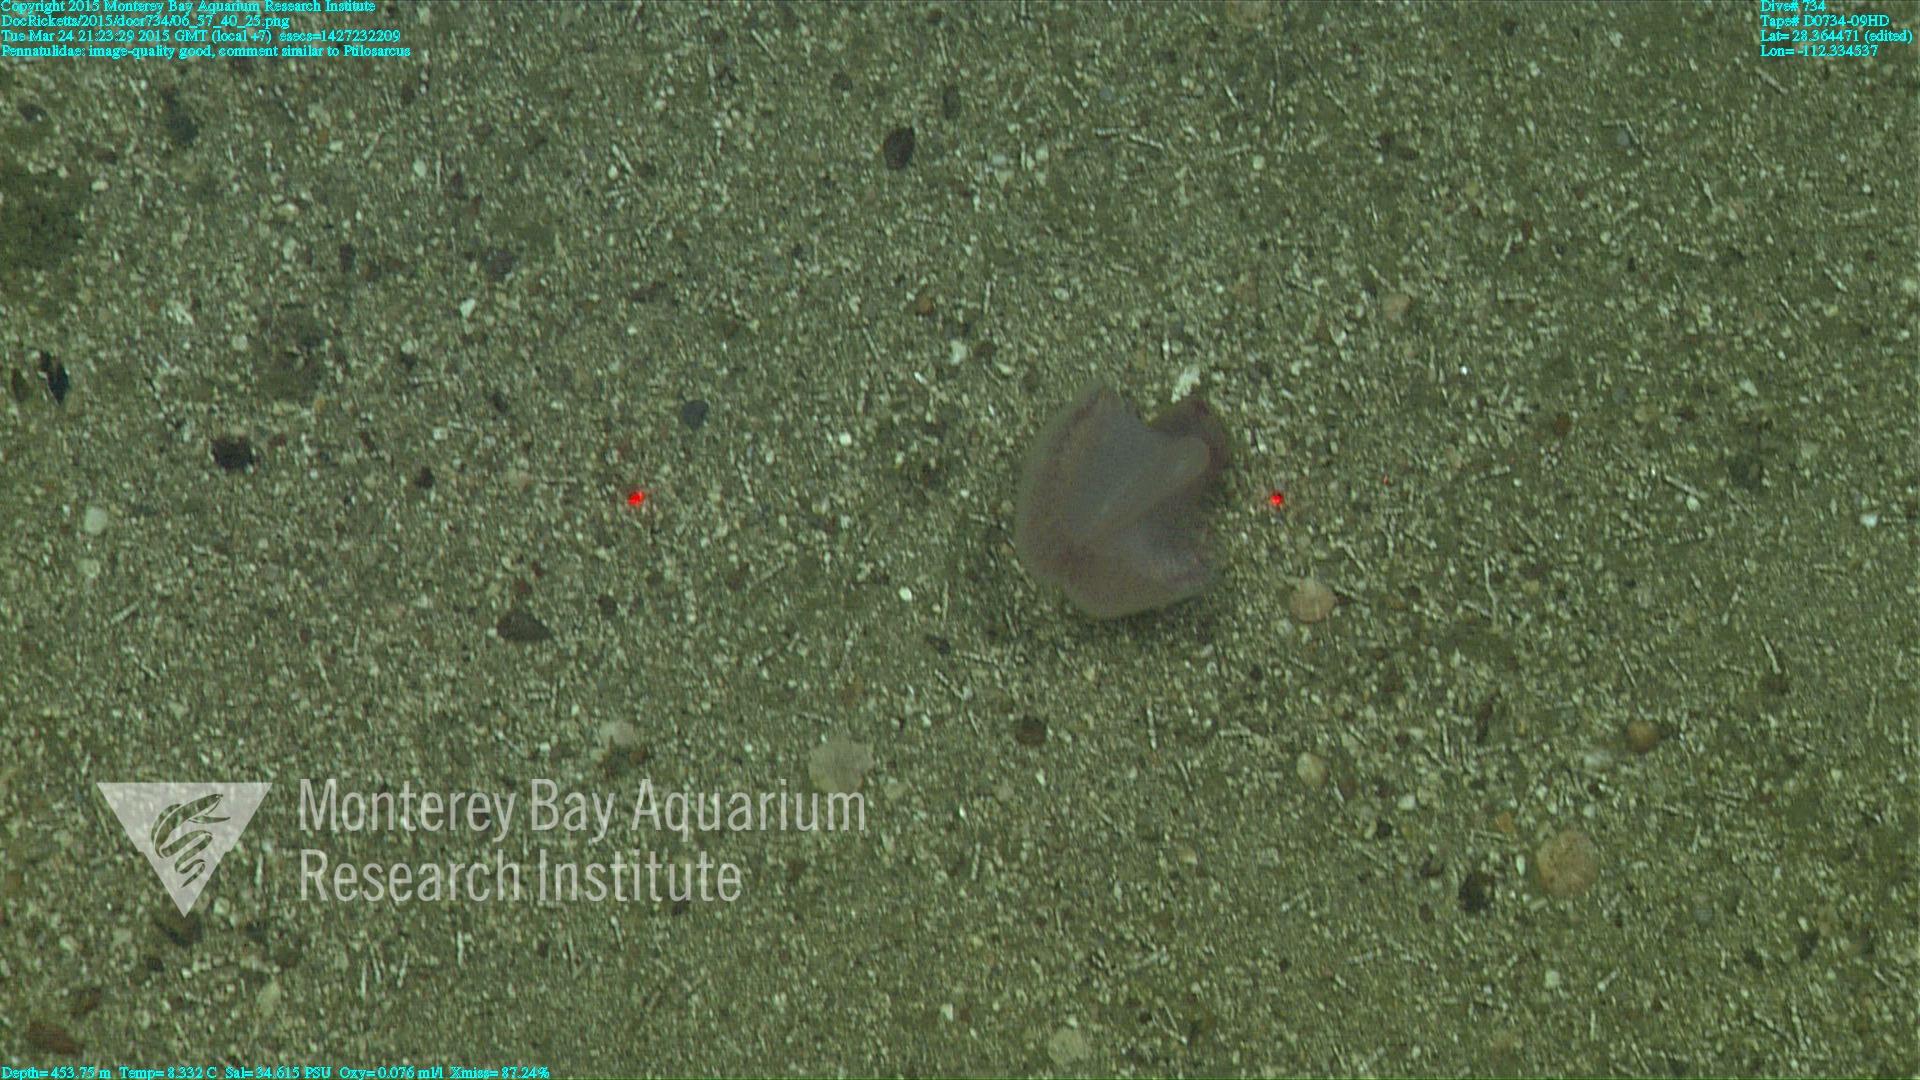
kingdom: Animalia
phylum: Cnidaria
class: Anthozoa
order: Scleralcyonacea
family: Pennatulidae
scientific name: Pennatulidae
